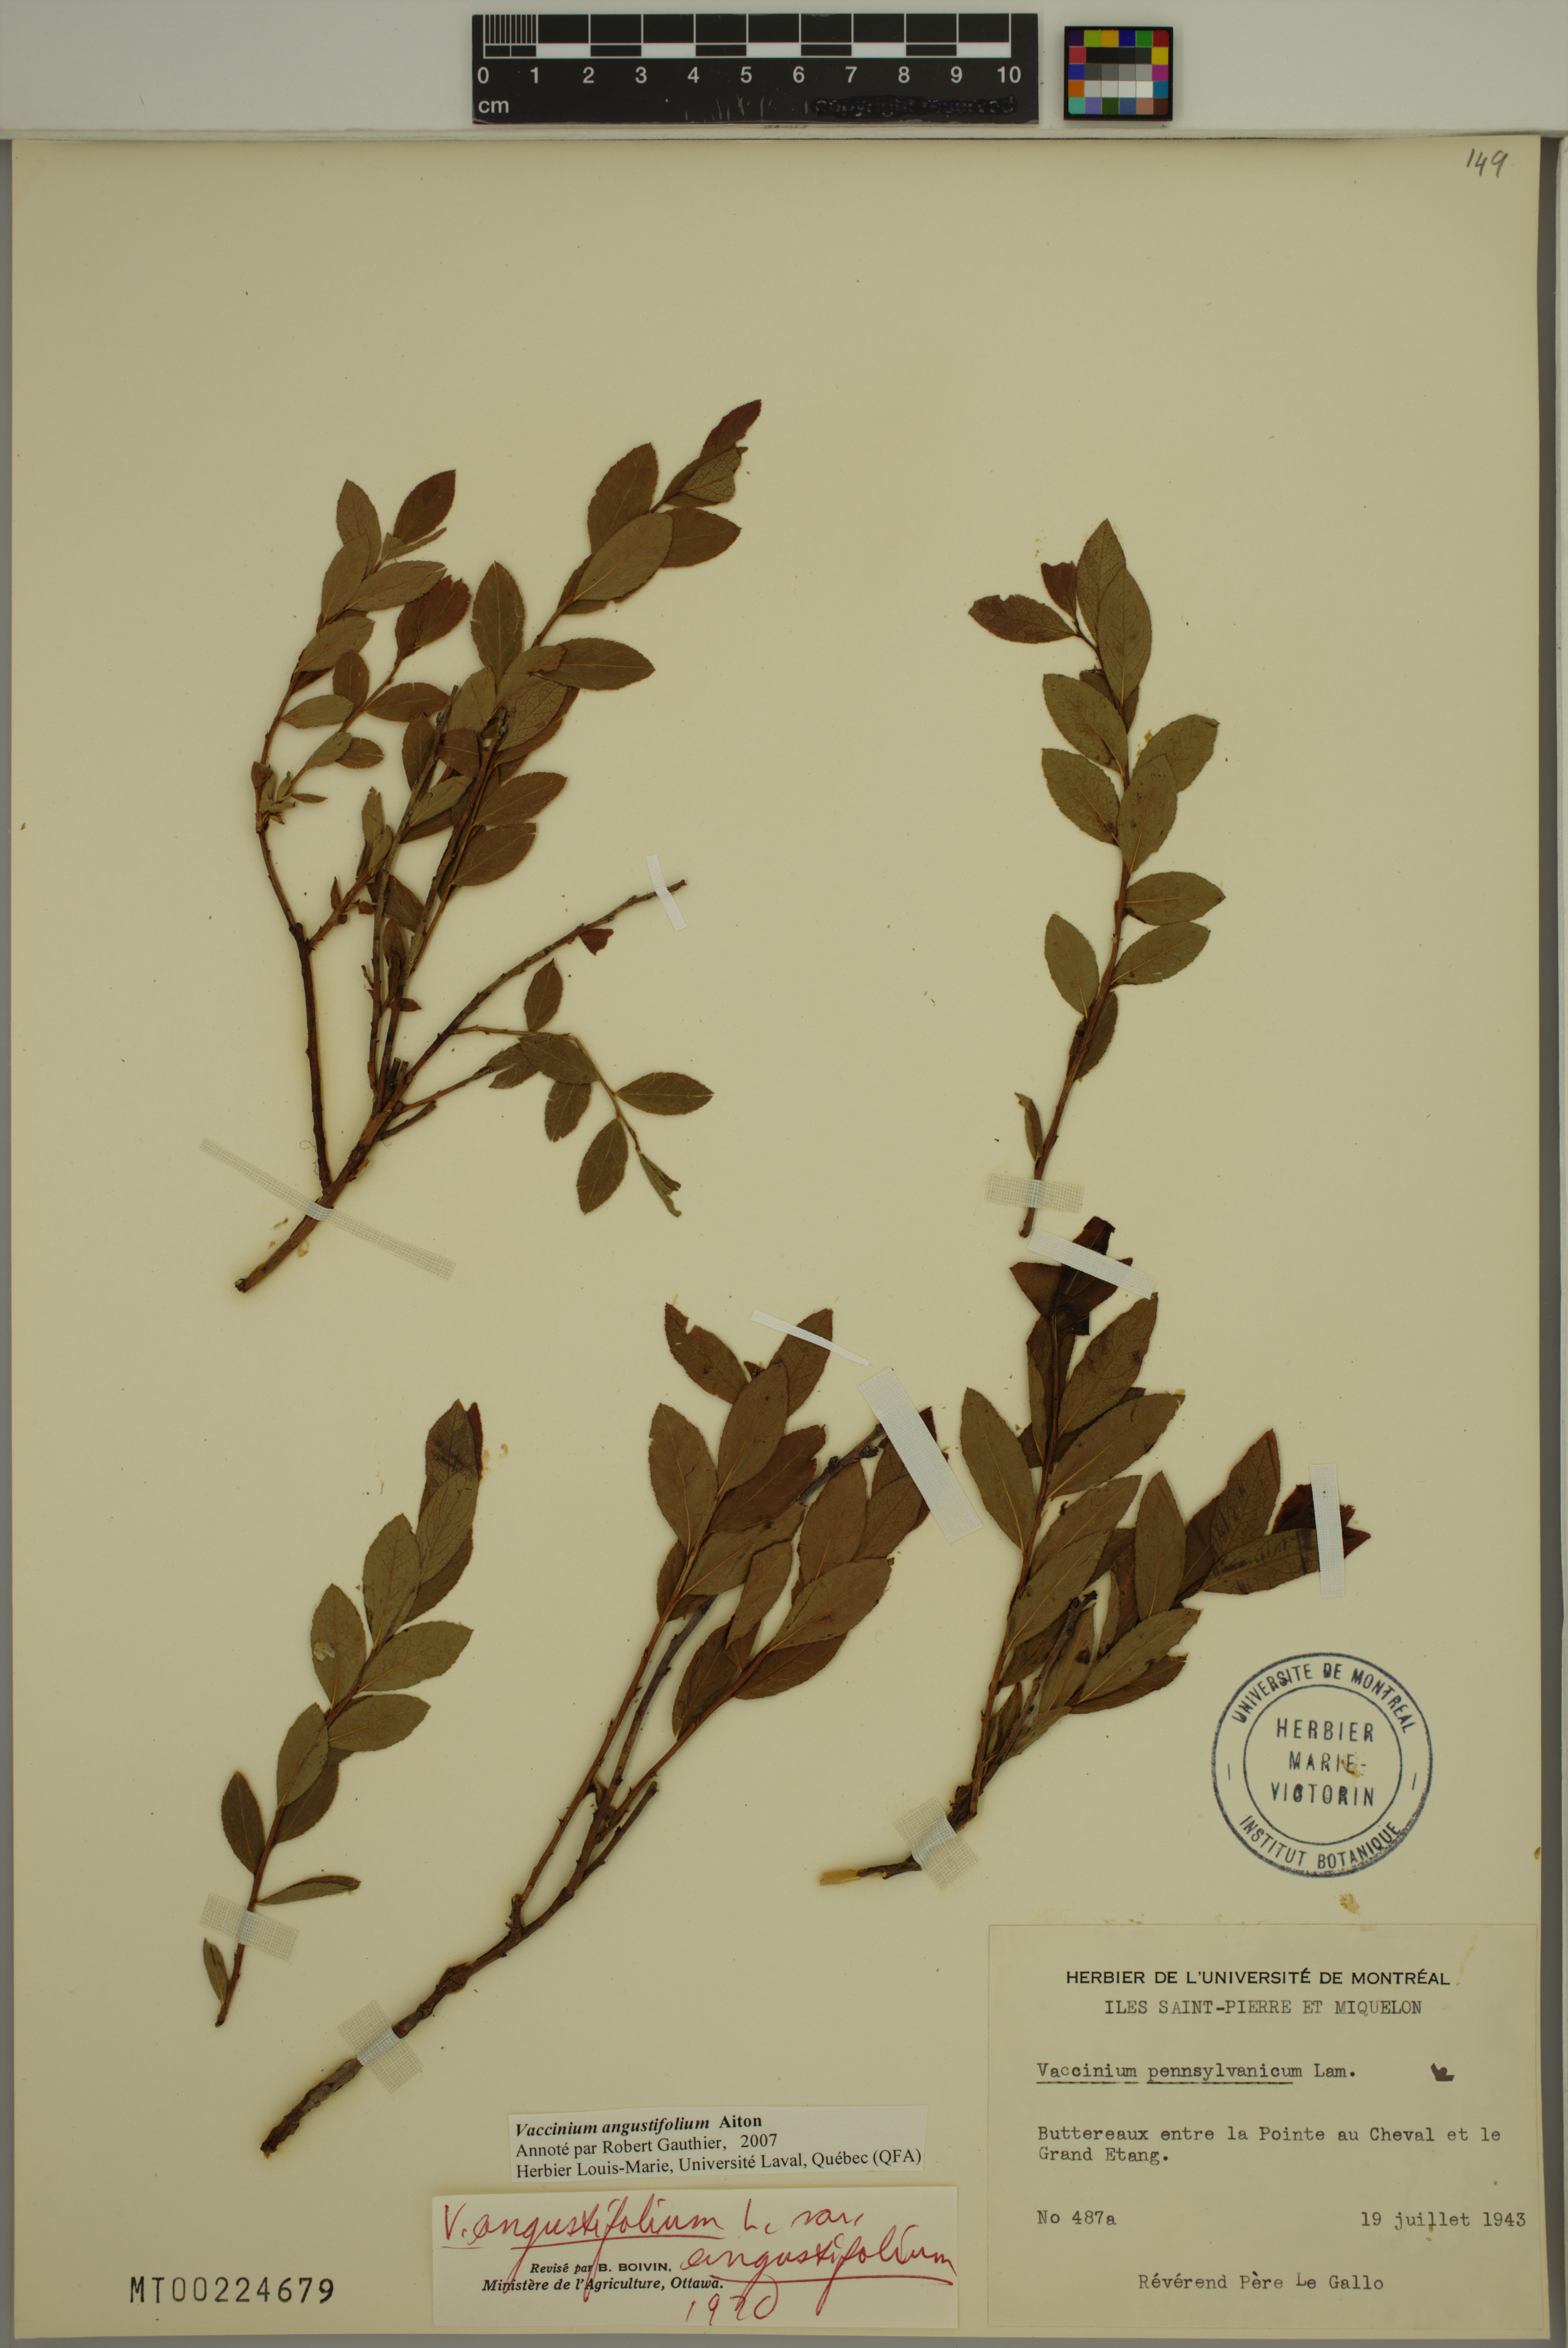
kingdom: Plantae
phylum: Tracheophyta
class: Magnoliopsida
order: Ericales
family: Ericaceae
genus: Vaccinium
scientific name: Vaccinium angustifolium
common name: Early lowbush blueberry
